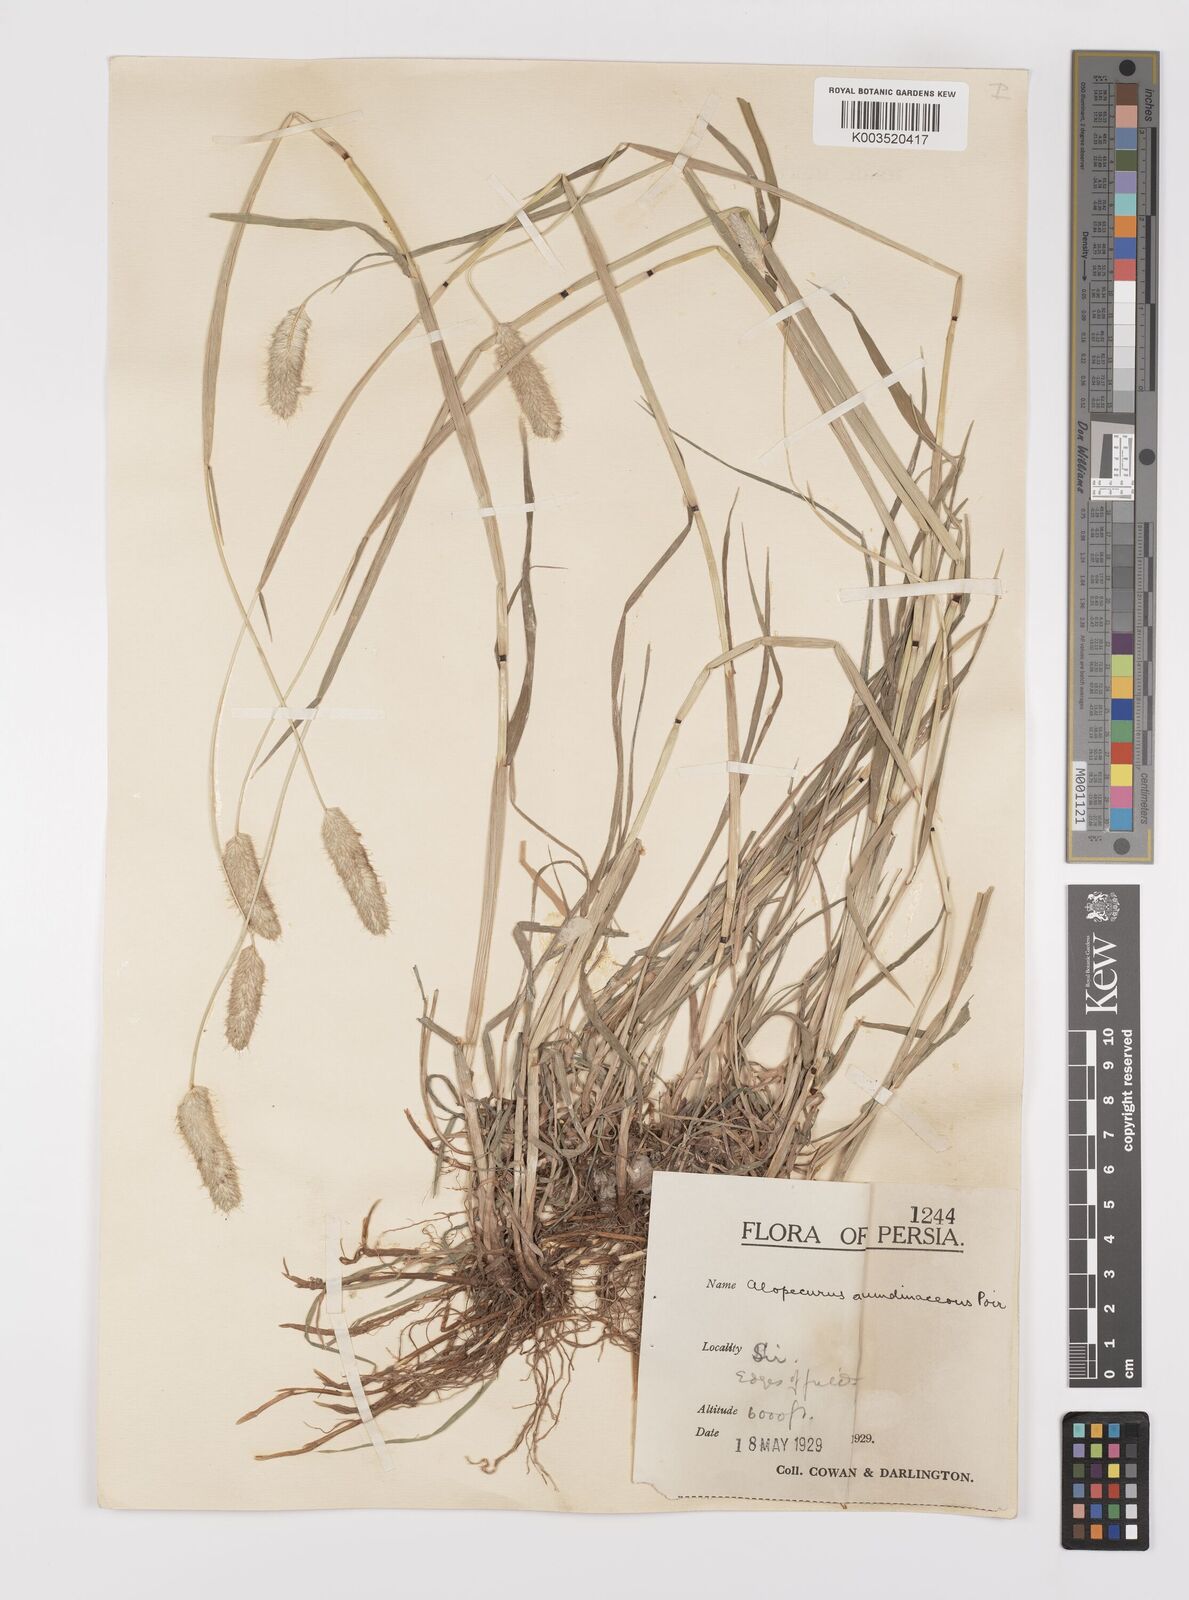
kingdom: Plantae
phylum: Tracheophyta
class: Liliopsida
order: Poales
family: Poaceae
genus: Alopecurus
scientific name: Alopecurus arundinaceus
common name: Creeping meadow foxtail
